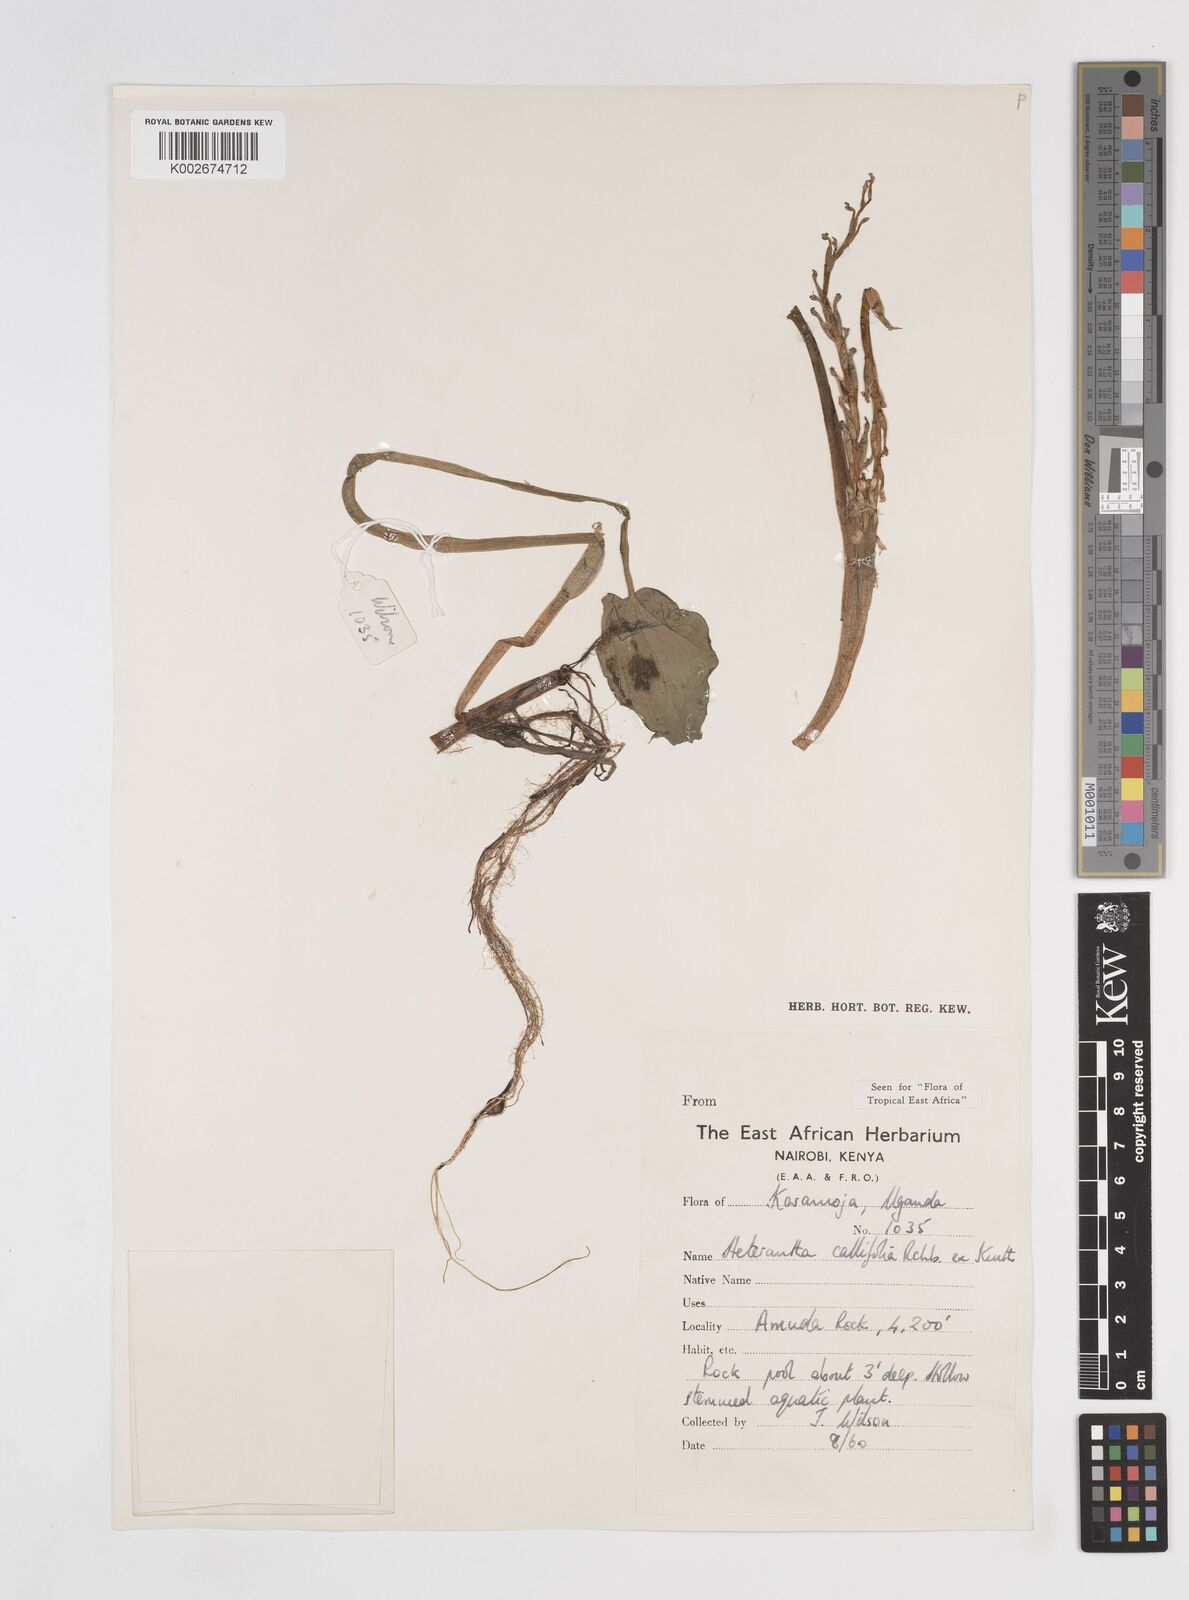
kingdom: Plantae
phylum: Tracheophyta
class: Liliopsida
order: Commelinales
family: Pontederiaceae
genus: Heteranthera
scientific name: Heteranthera callifolia
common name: Mud plantain
